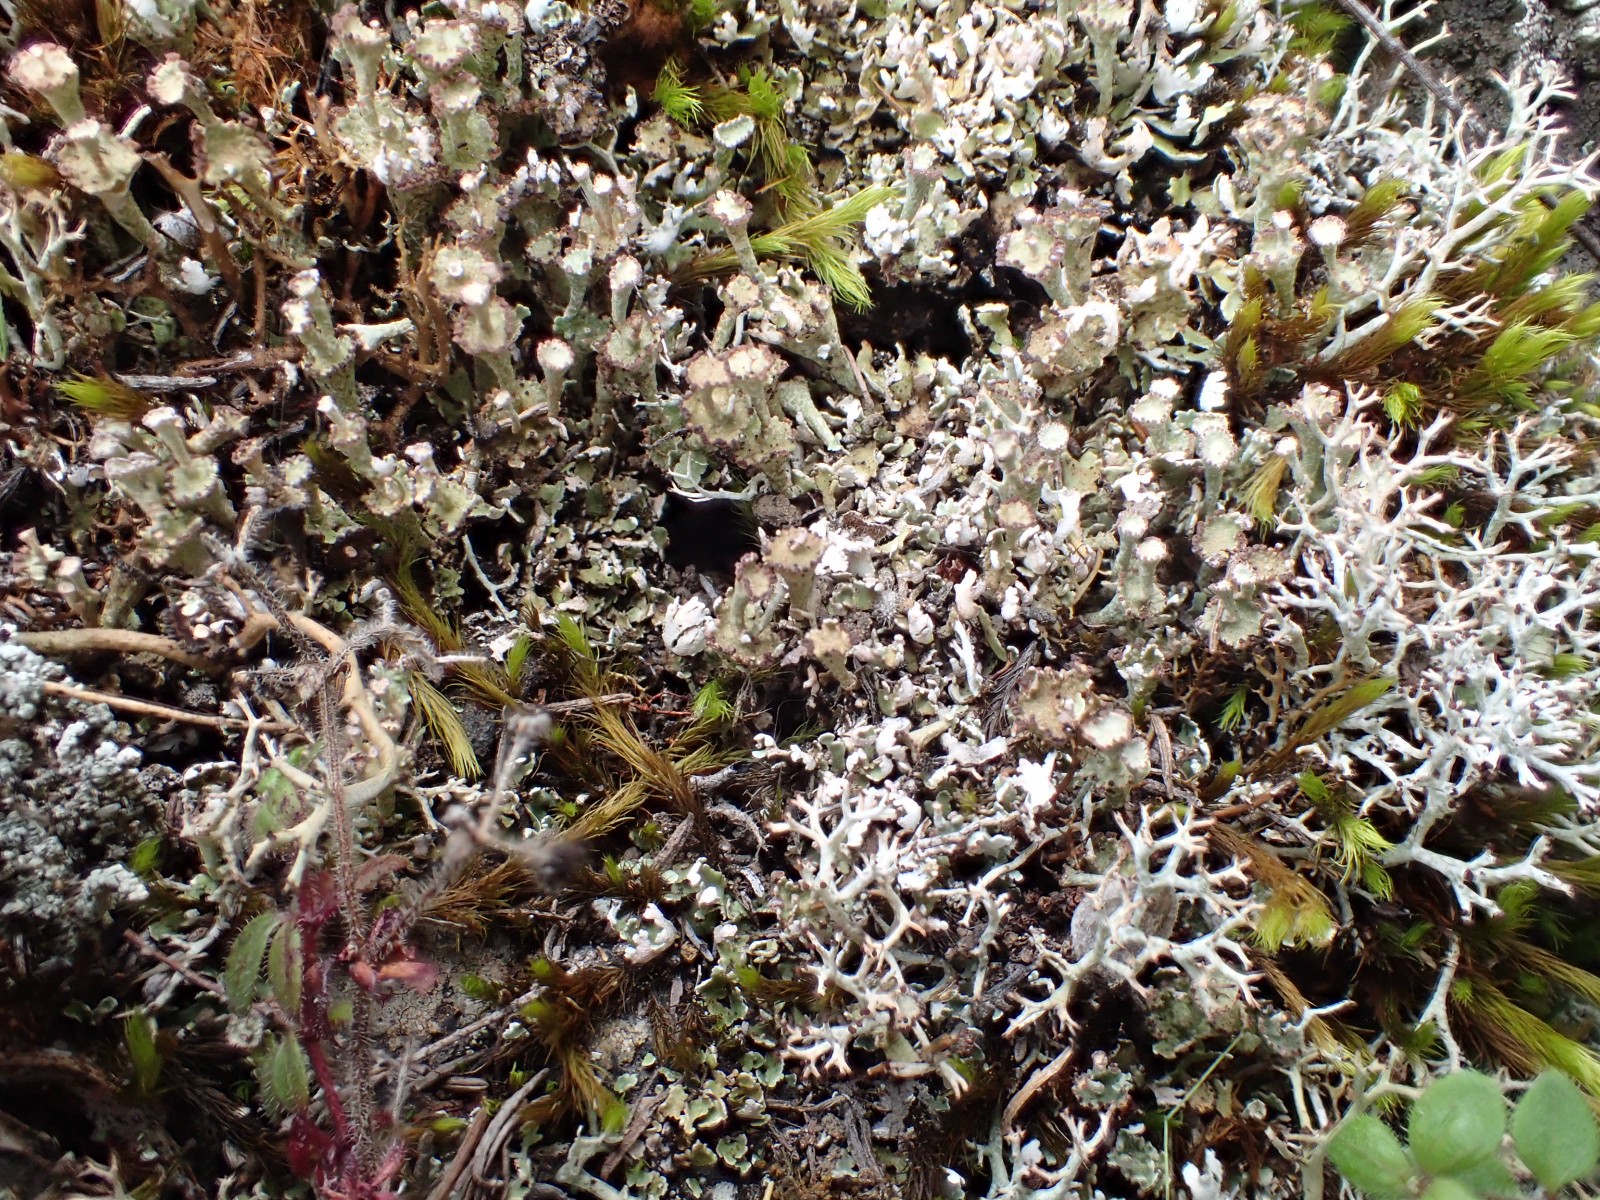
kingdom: Fungi
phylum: Ascomycota
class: Lecanoromycetes
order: Lecanorales
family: Cladoniaceae
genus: Cladonia
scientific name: Cladonia rangiformis
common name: spættet bægerlav
